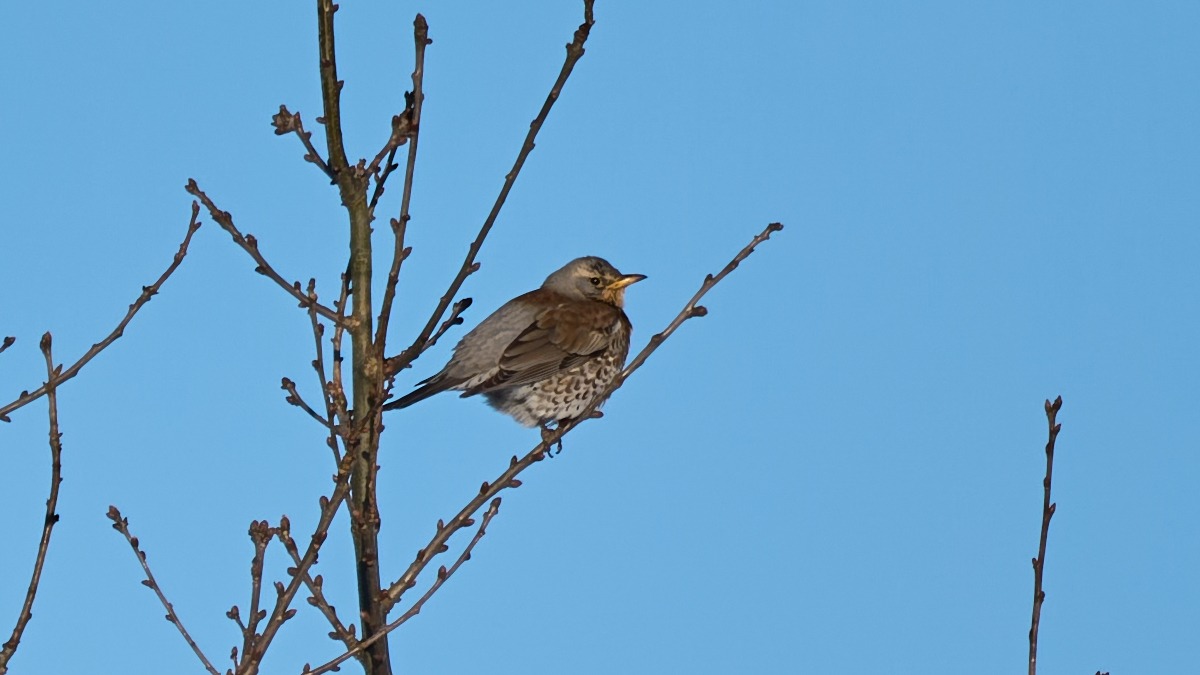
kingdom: Animalia
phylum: Chordata
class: Aves
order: Passeriformes
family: Turdidae
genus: Turdus
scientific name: Turdus pilaris
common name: Sjagger
